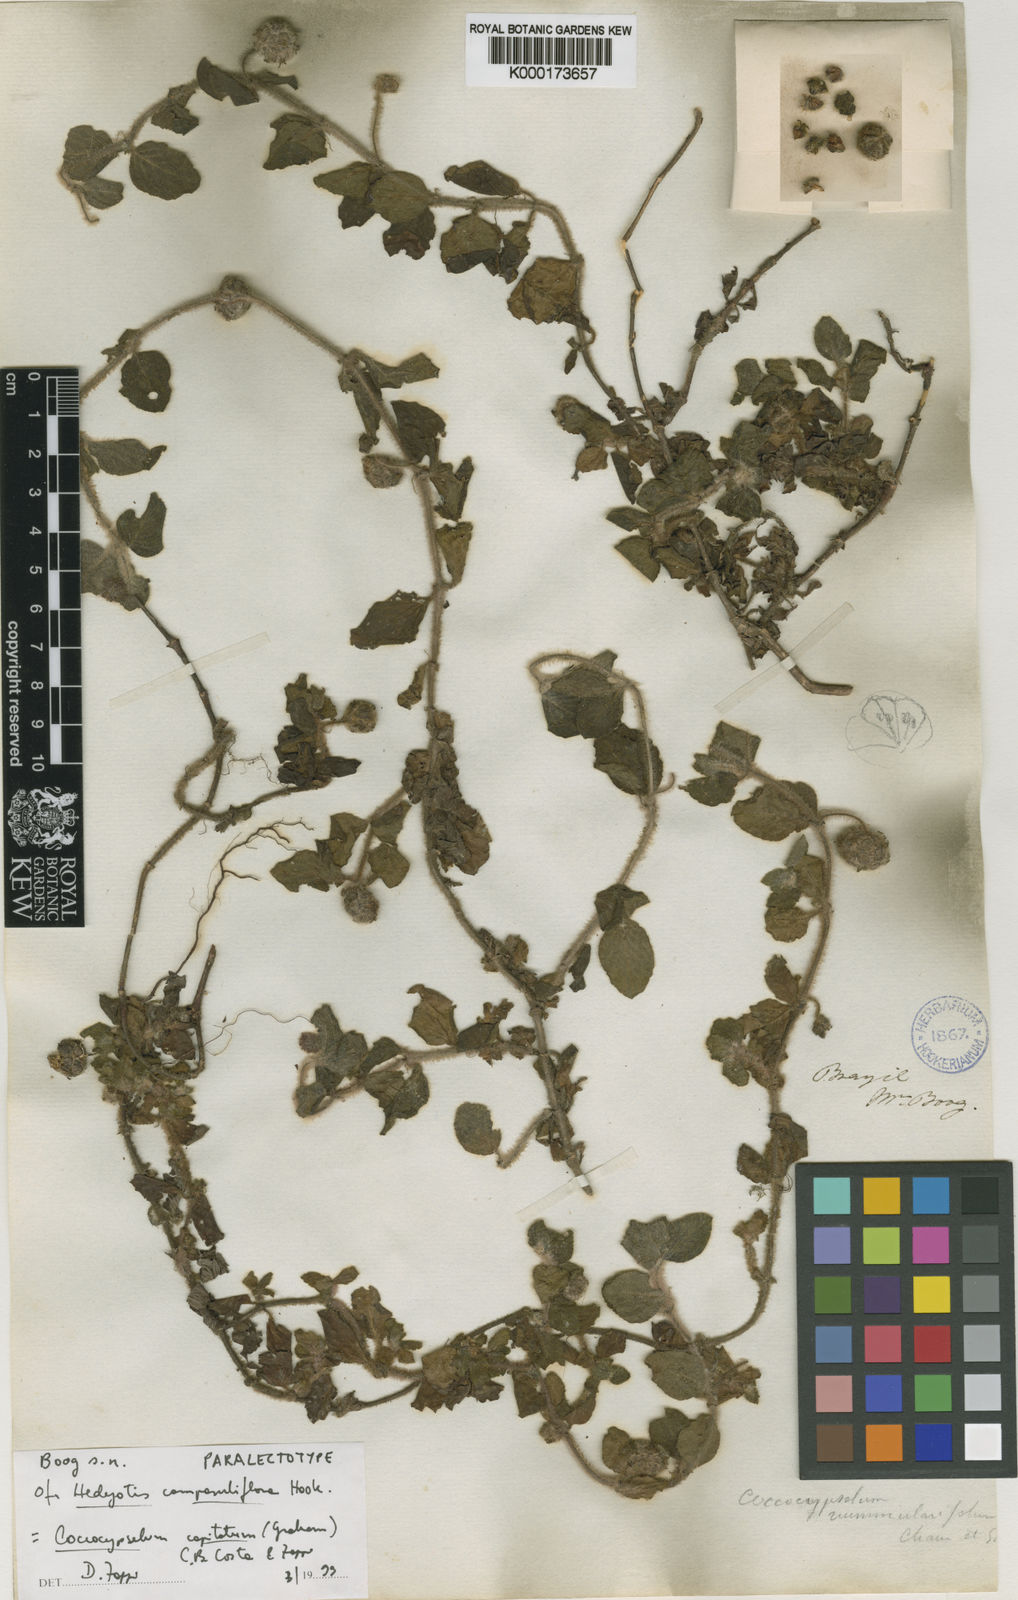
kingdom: Plantae
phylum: Tracheophyta
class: Magnoliopsida
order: Gentianales
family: Rubiaceae
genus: Coccocypselum
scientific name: Coccocypselum
